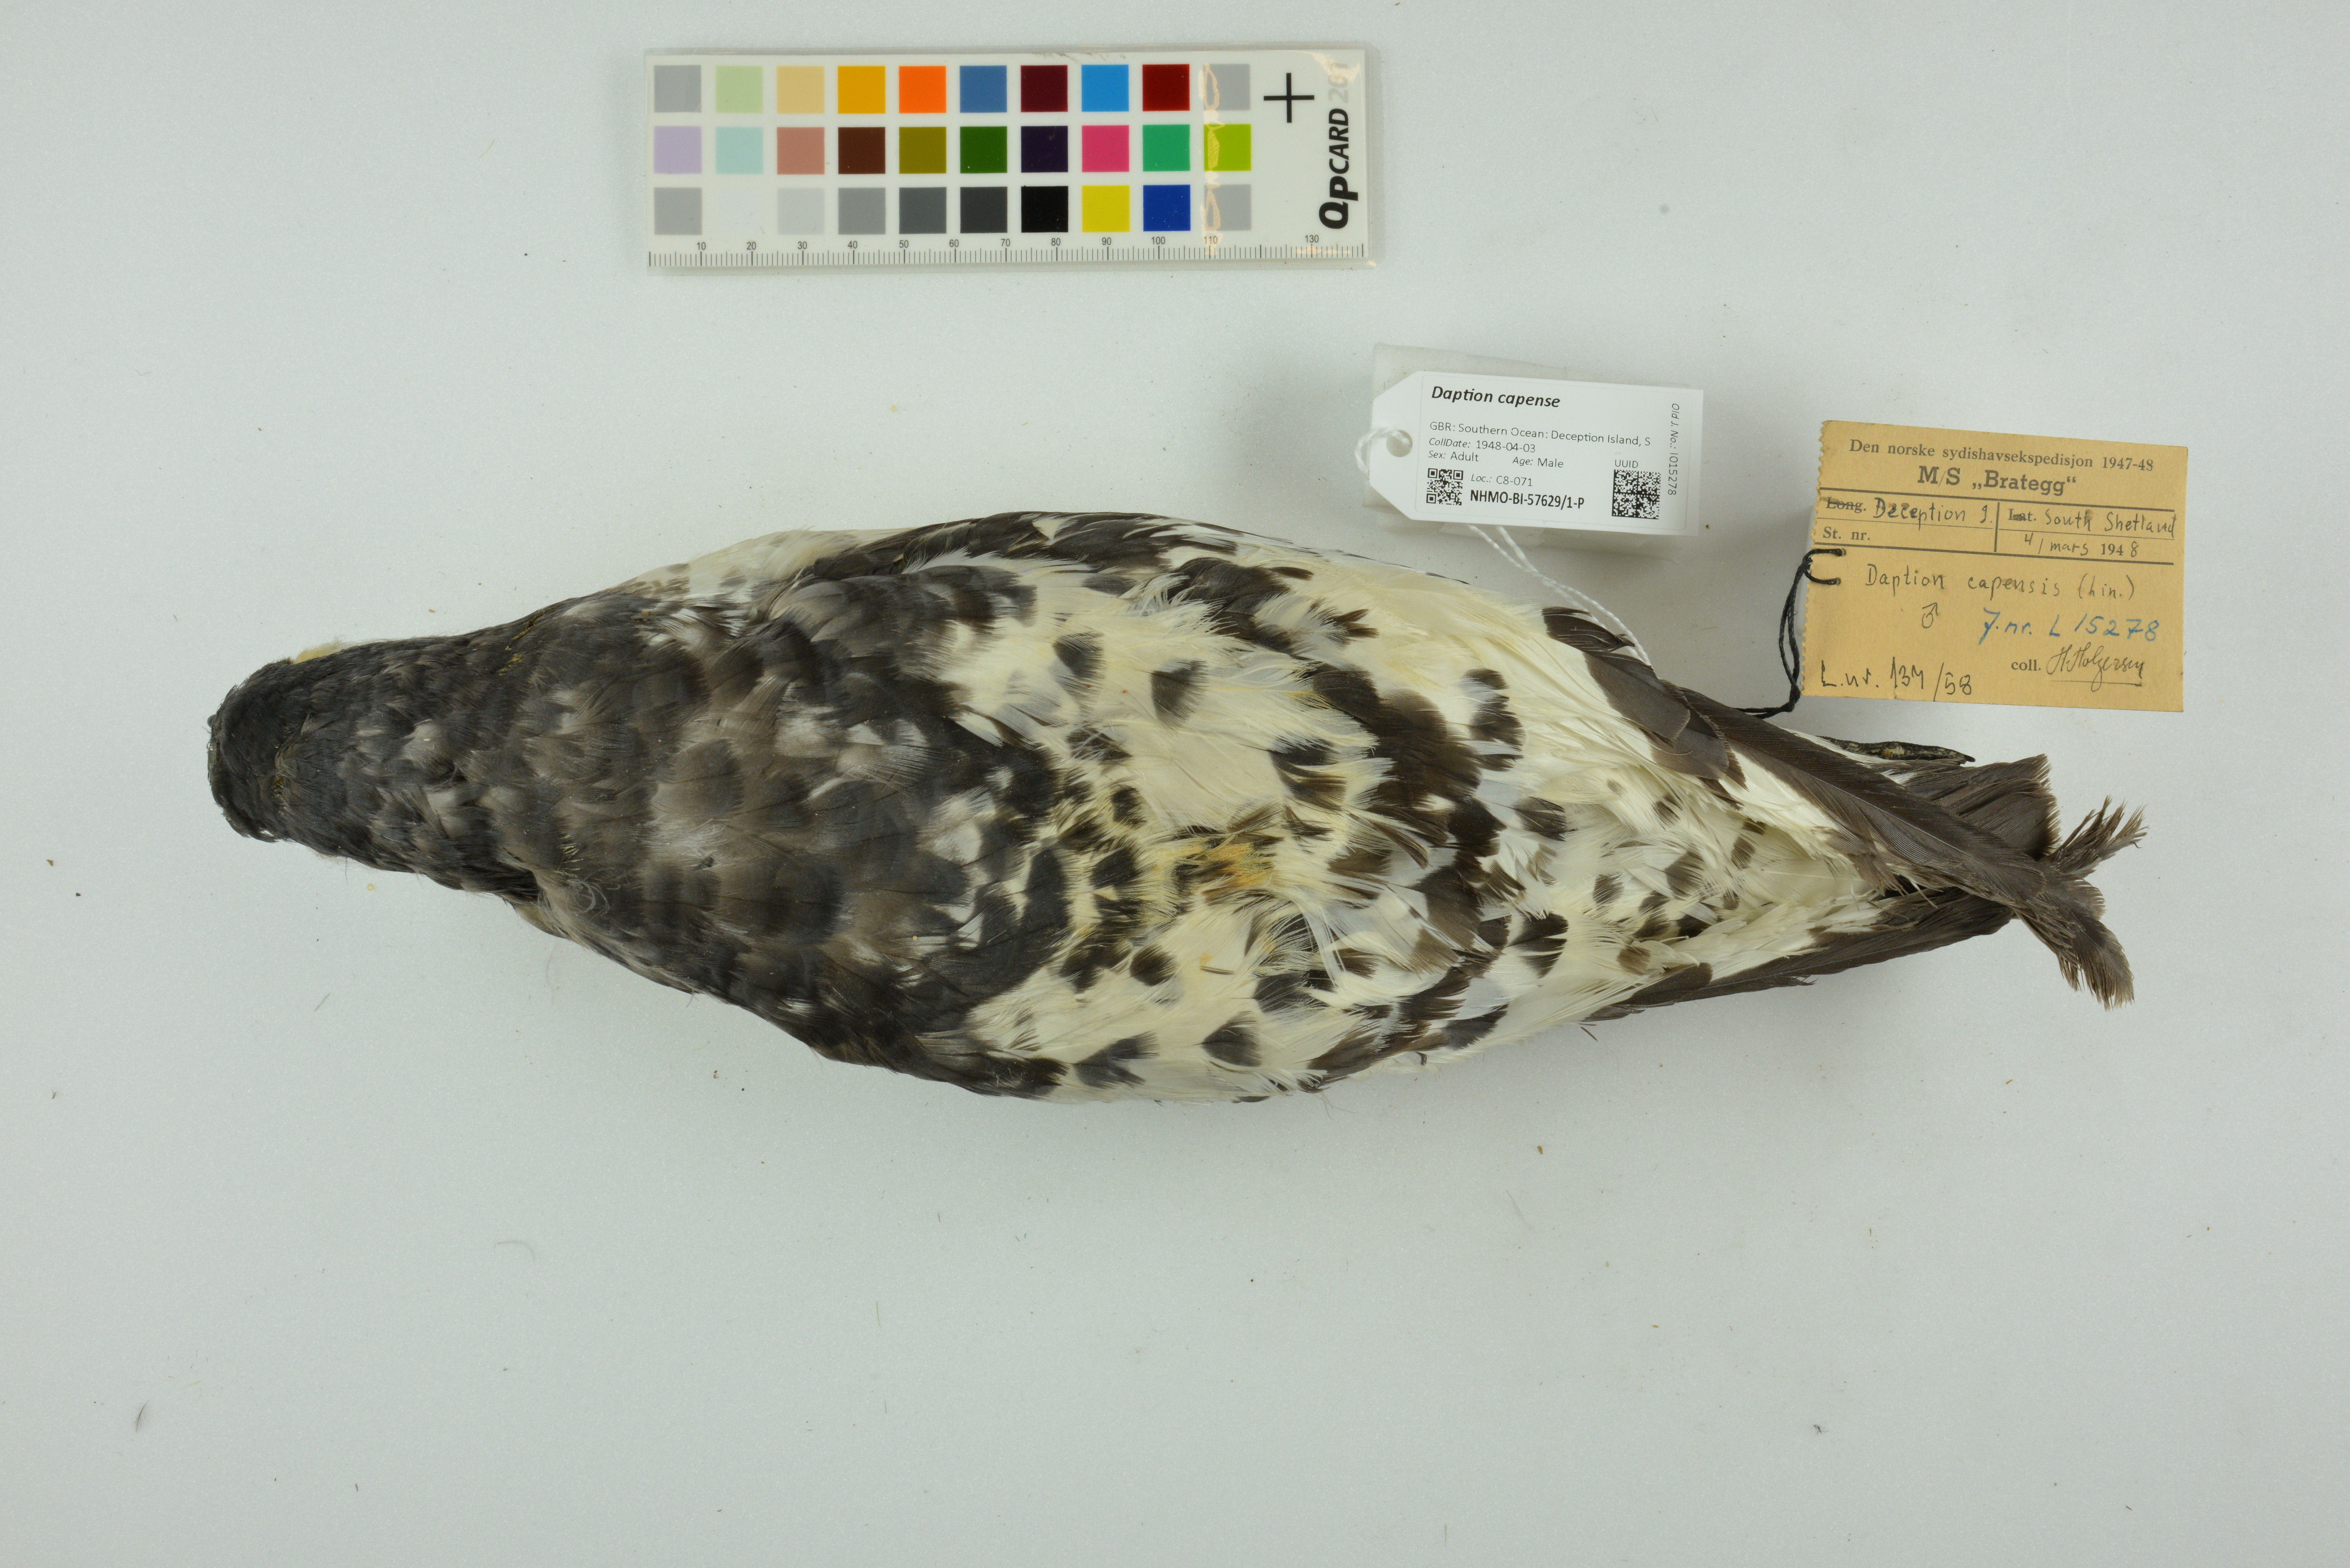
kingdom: Animalia
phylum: Chordata
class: Aves
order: Procellariiformes
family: Procellariidae
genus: Daption
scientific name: Daption capense
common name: Cape petrel
